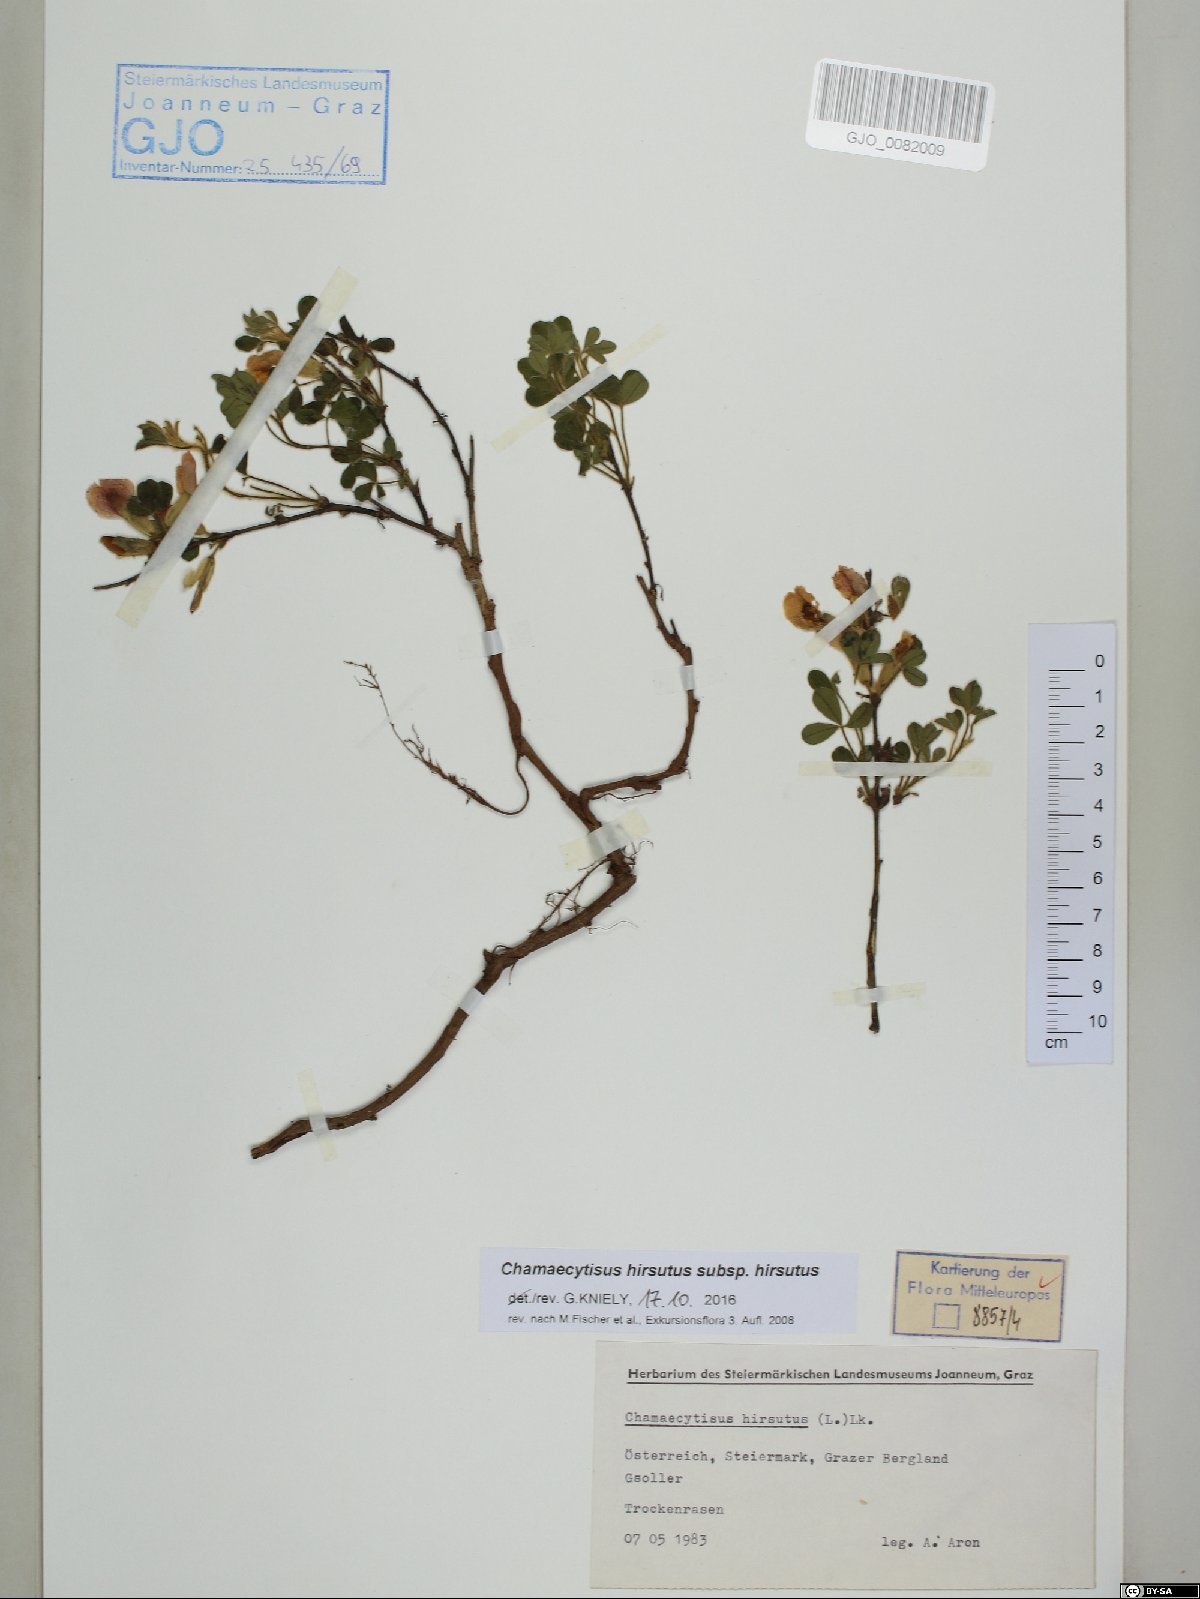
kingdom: Plantae
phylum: Tracheophyta
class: Magnoliopsida
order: Fabales
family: Fabaceae
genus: Chamaecytisus
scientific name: Chamaecytisus hirsutus
